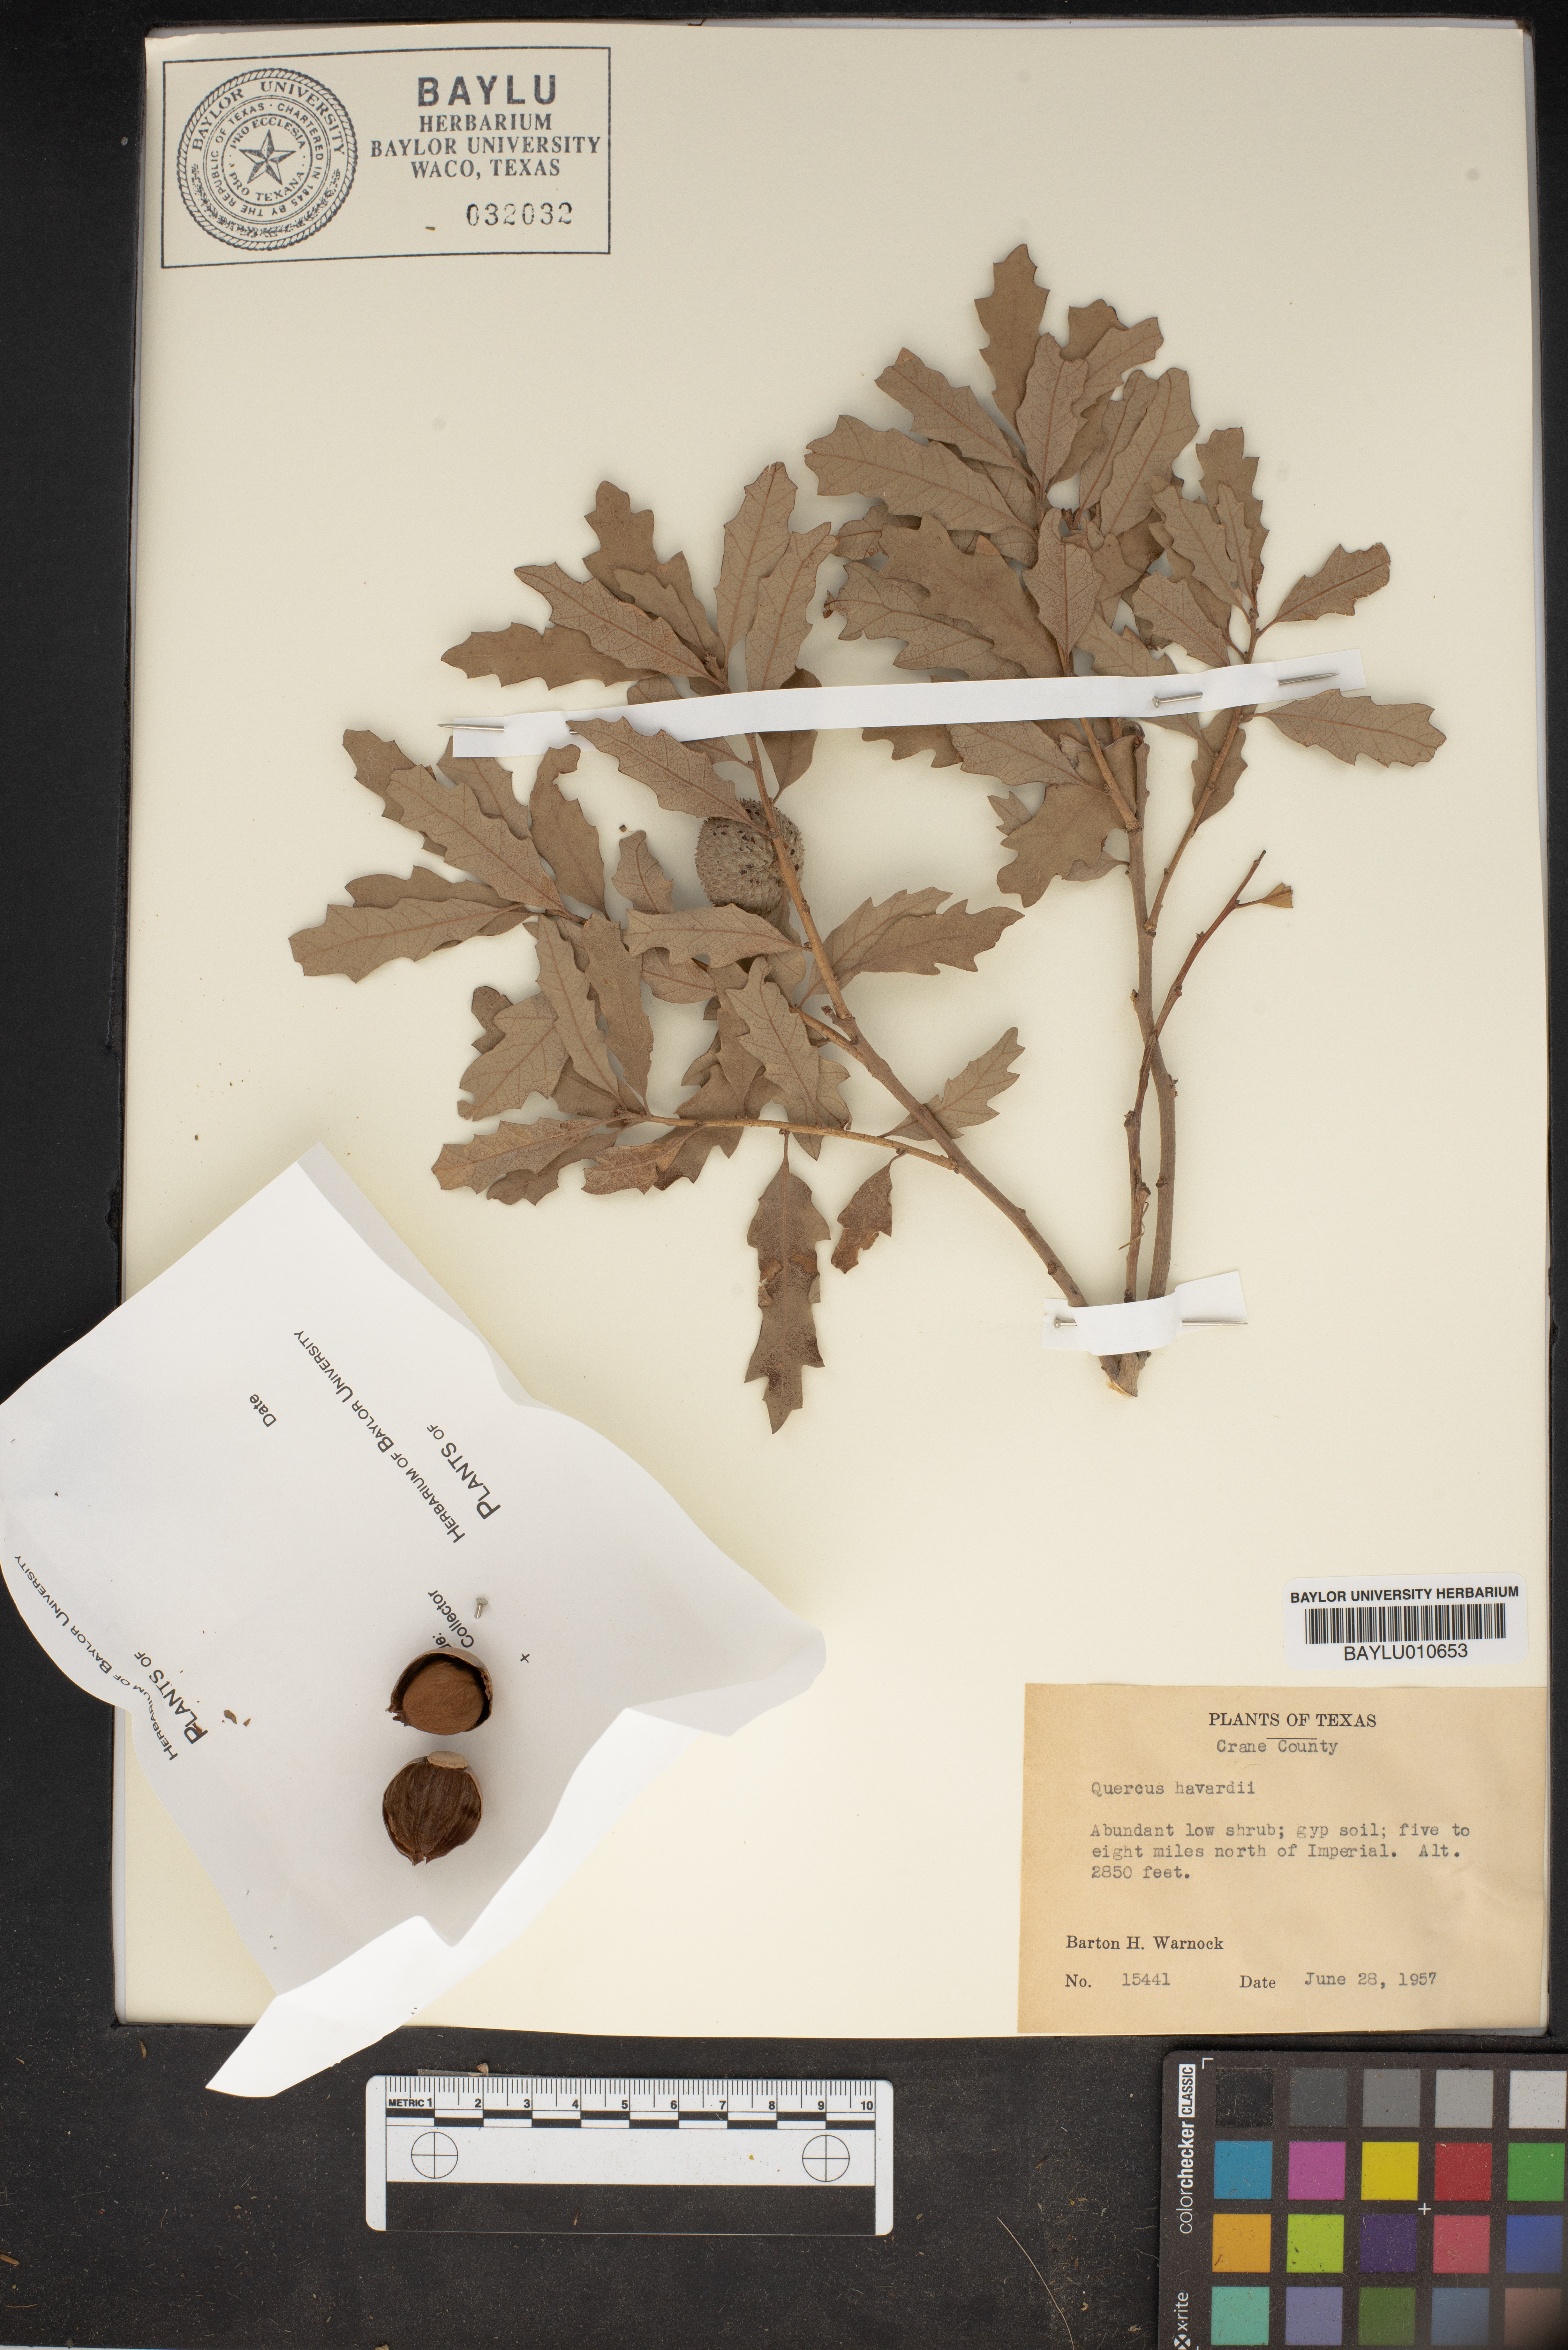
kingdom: Plantae
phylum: Tracheophyta
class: Magnoliopsida
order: Fagales
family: Fagaceae
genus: Quercus
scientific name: Quercus havardii
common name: Shinnery oak
